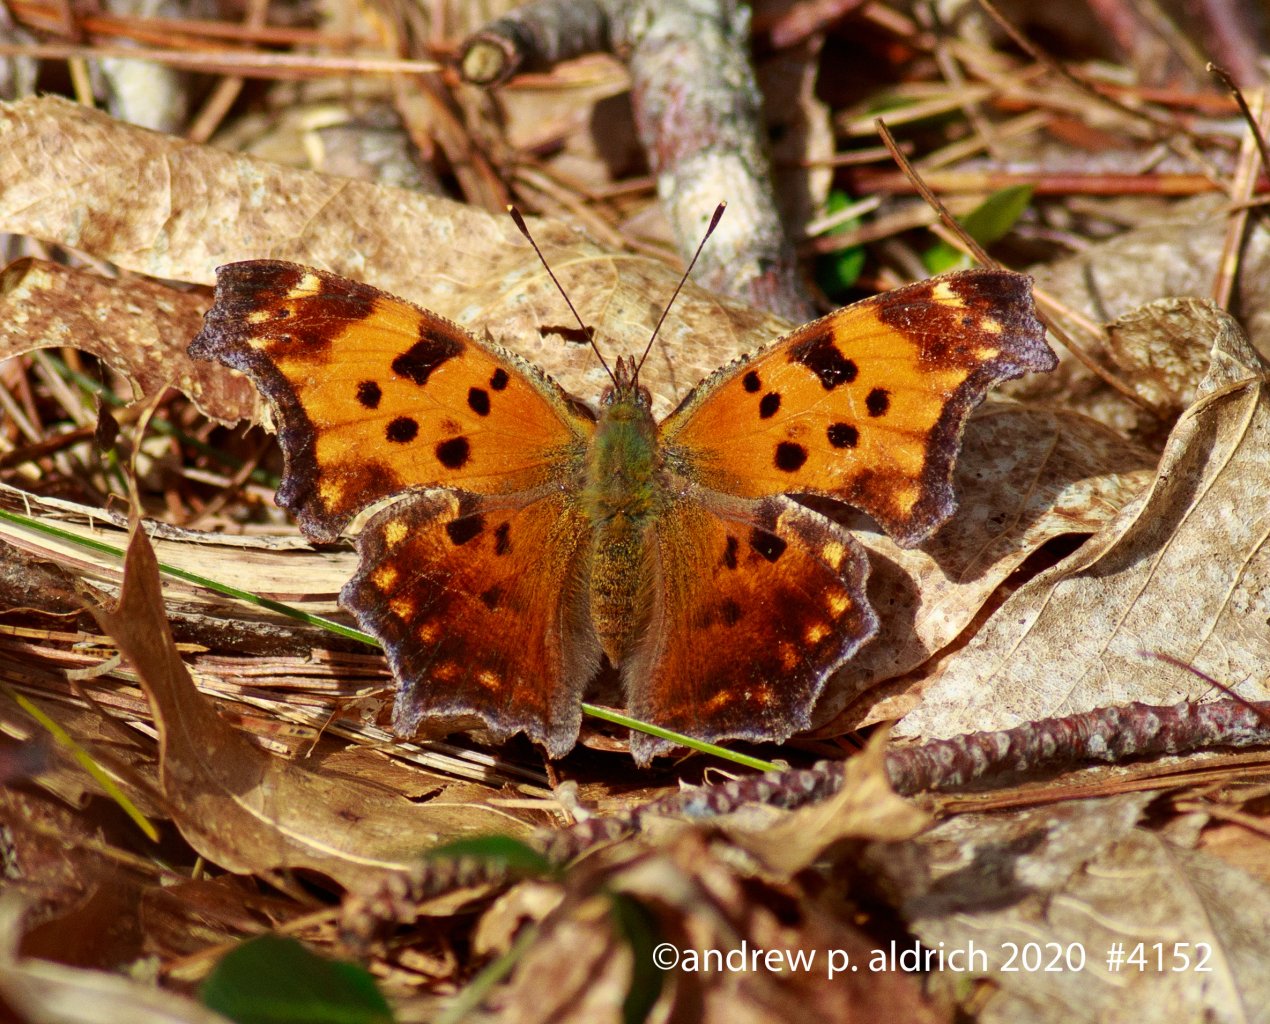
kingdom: Animalia
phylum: Arthropoda
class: Insecta
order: Lepidoptera
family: Nymphalidae
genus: Polygonia
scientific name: Polygonia comma
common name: Eastern Comma
